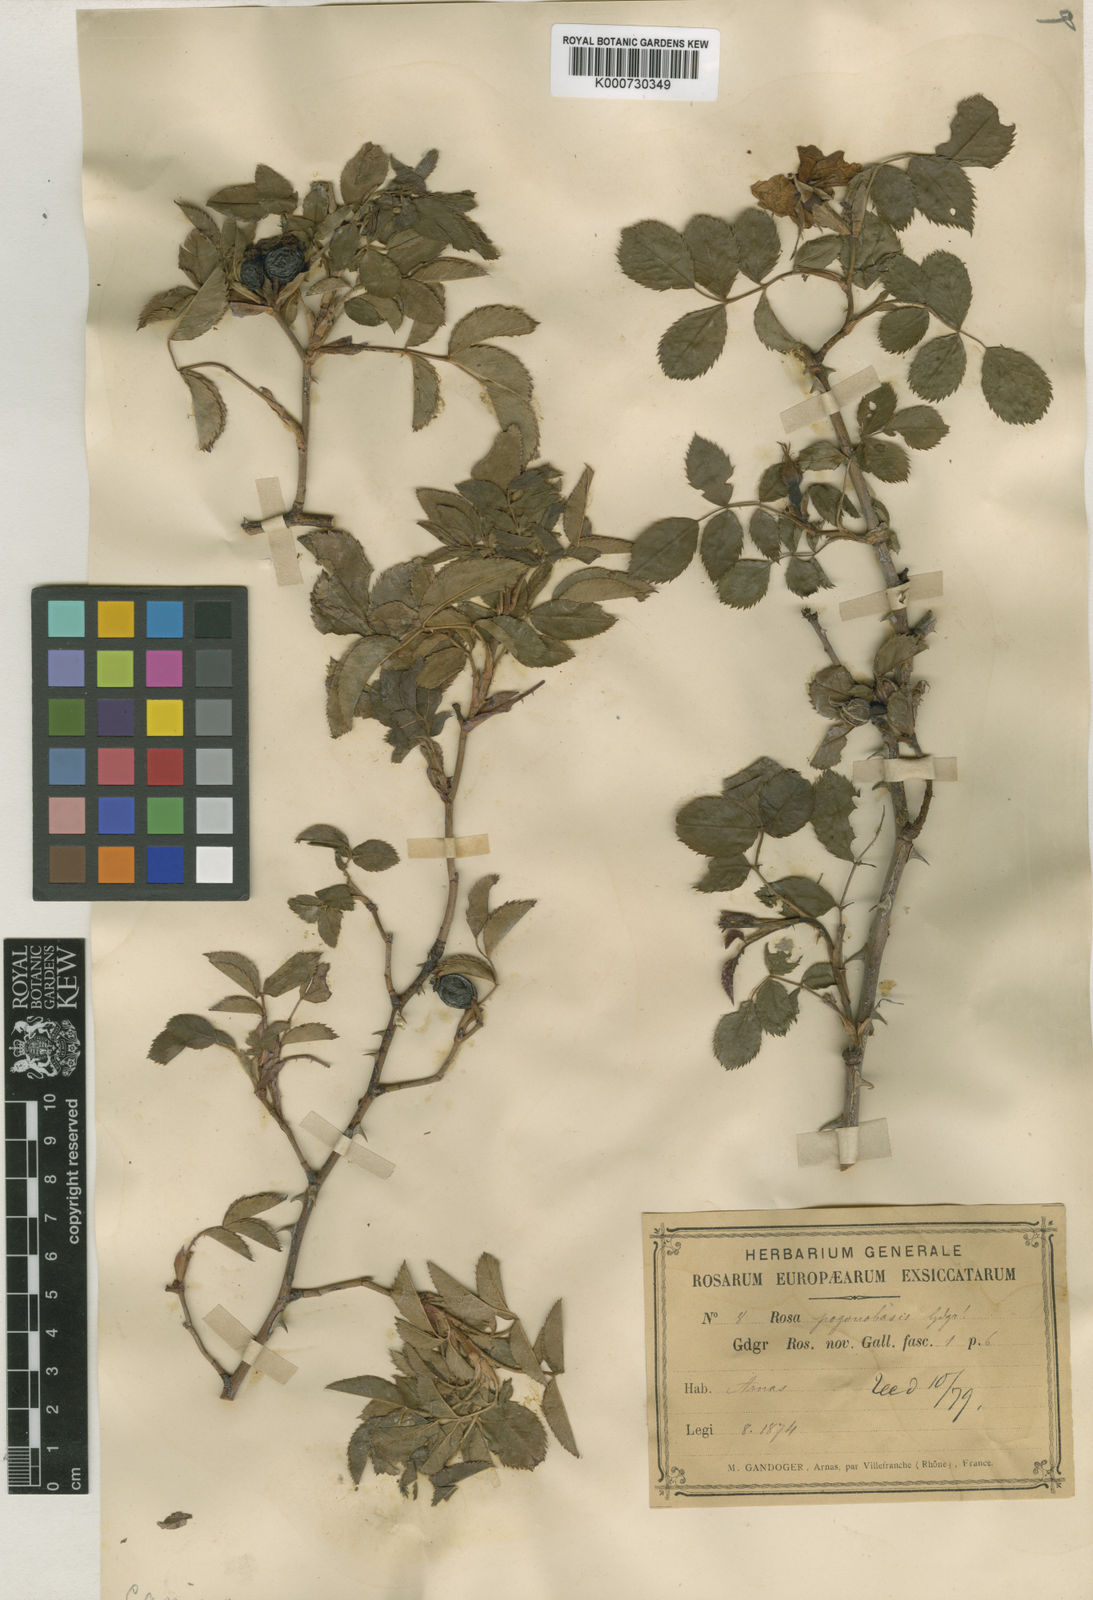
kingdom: Plantae
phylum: Tracheophyta
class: Magnoliopsida
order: Rosales
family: Rosaceae
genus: Rosa
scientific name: Rosa canina
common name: Dog rose
